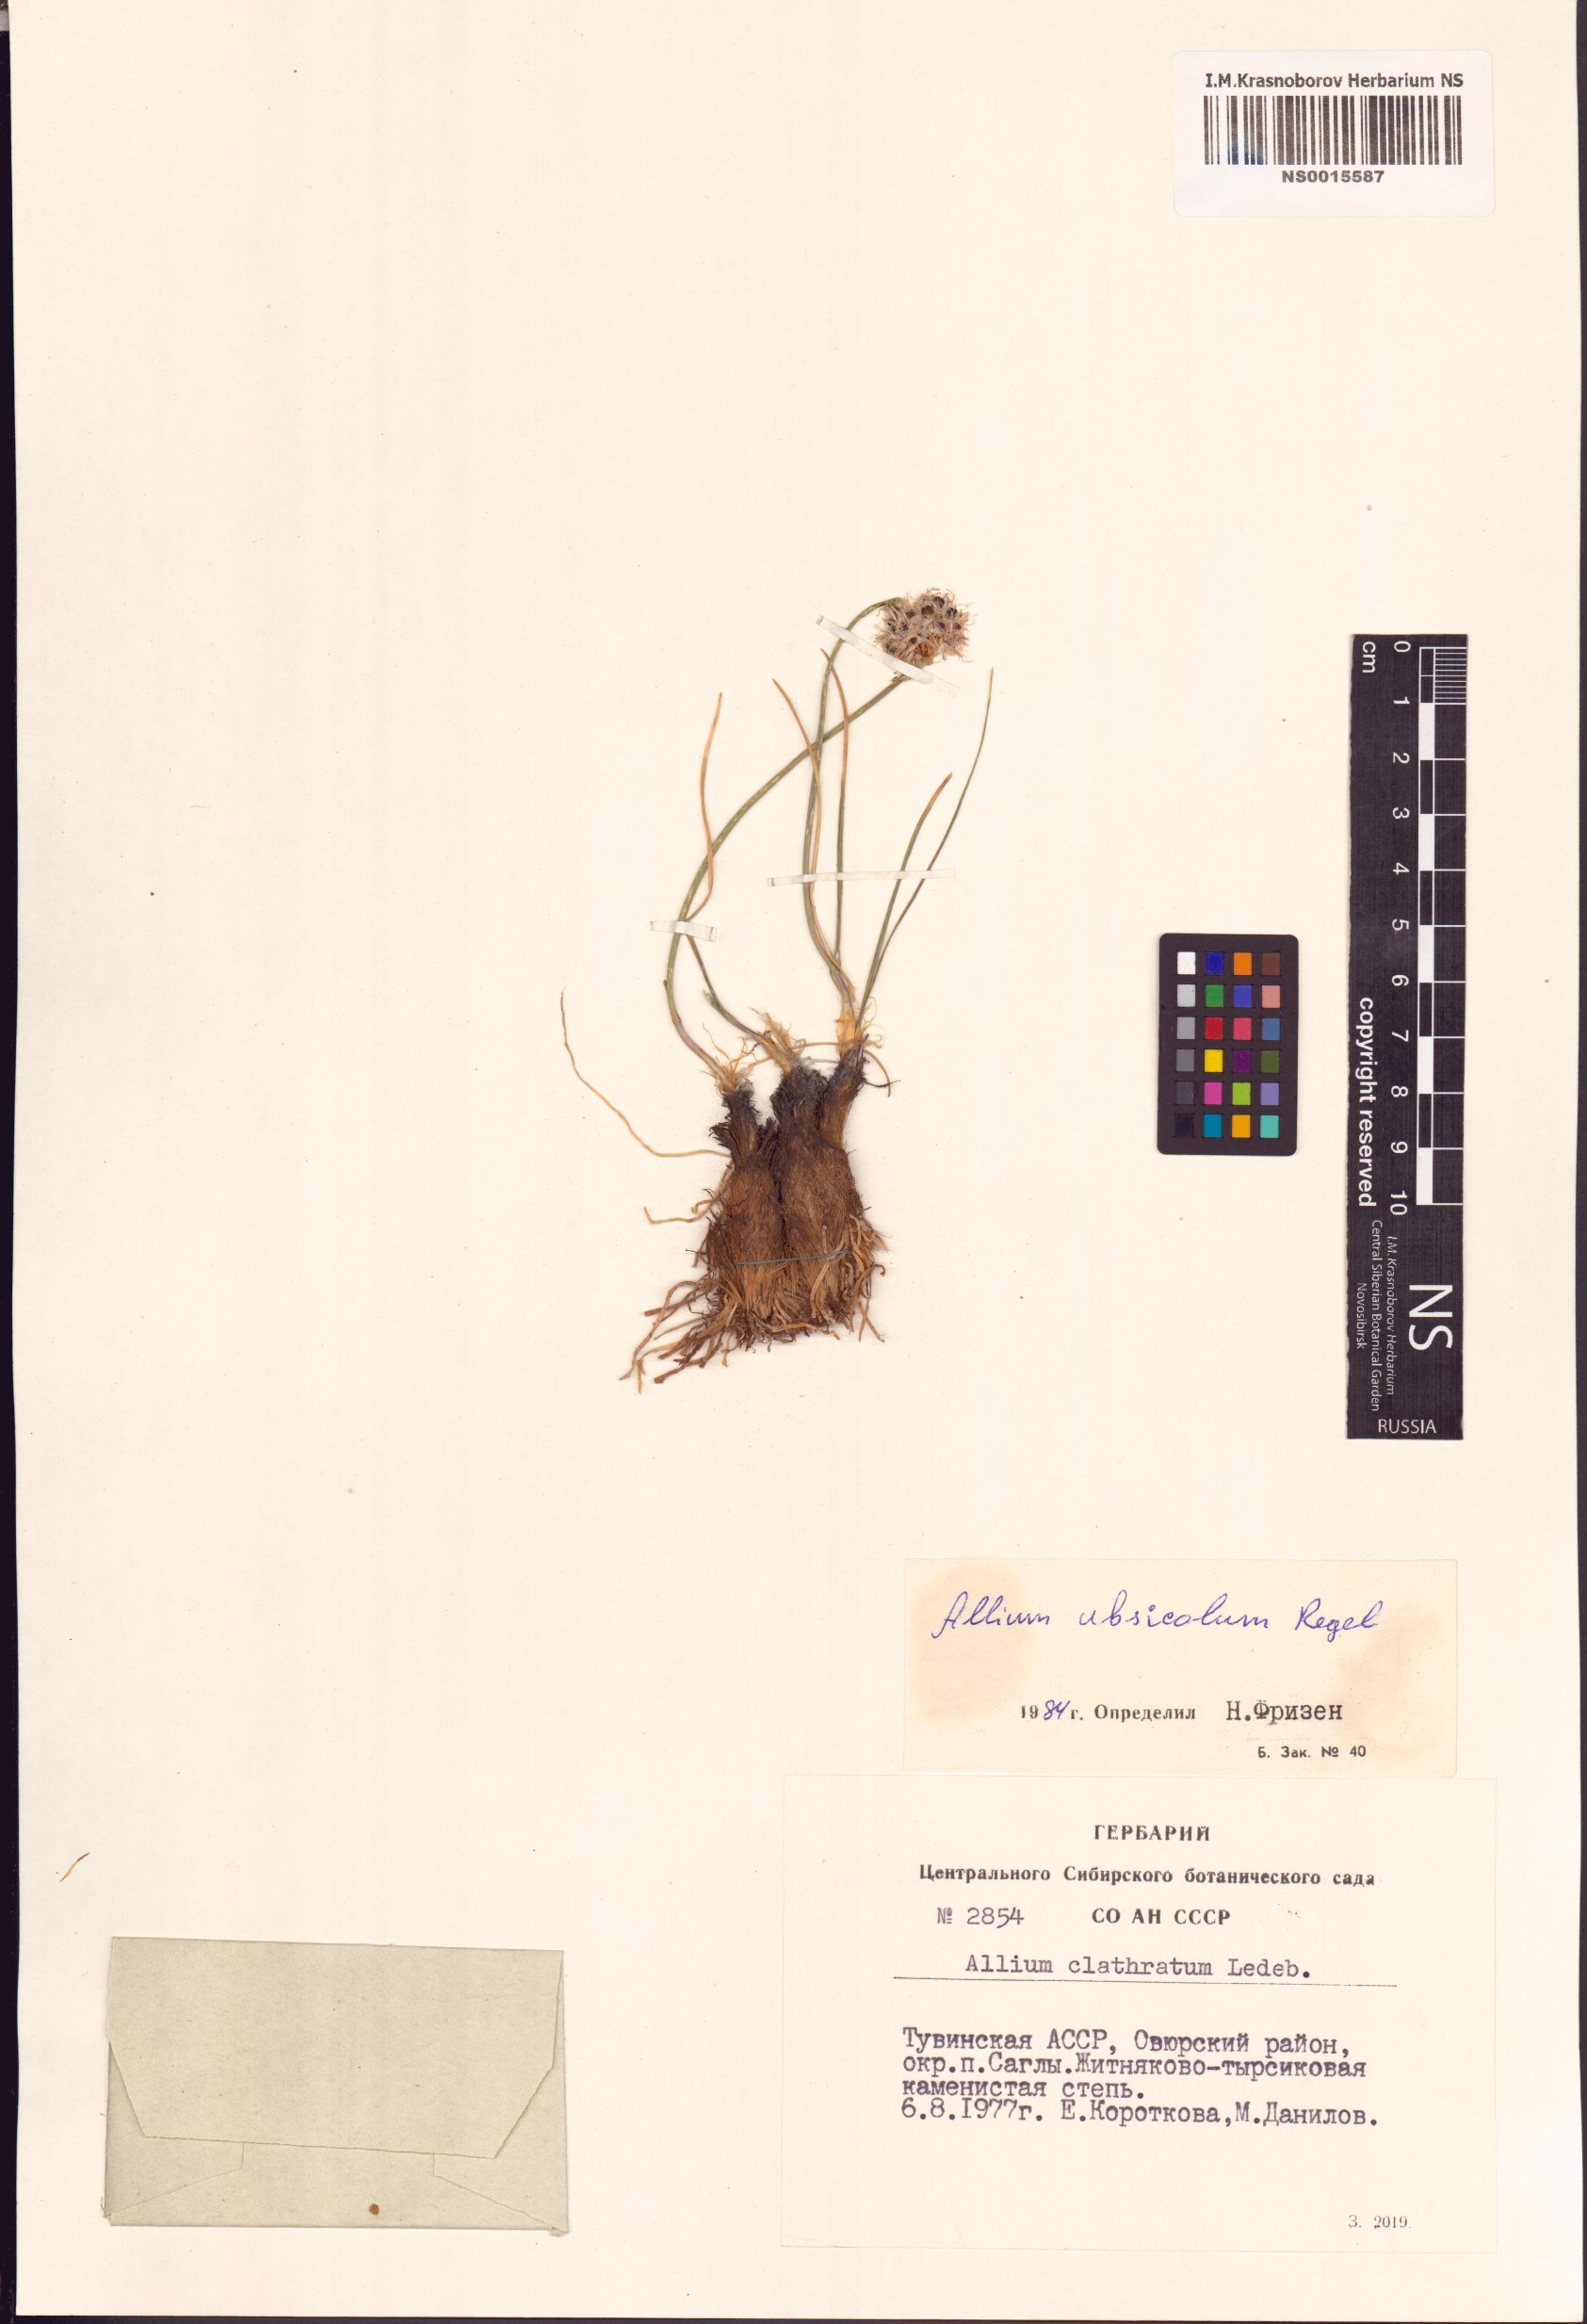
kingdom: Plantae
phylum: Tracheophyta
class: Liliopsida
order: Asparagales
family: Amaryllidaceae
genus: Allium
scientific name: Allium ubsicola
